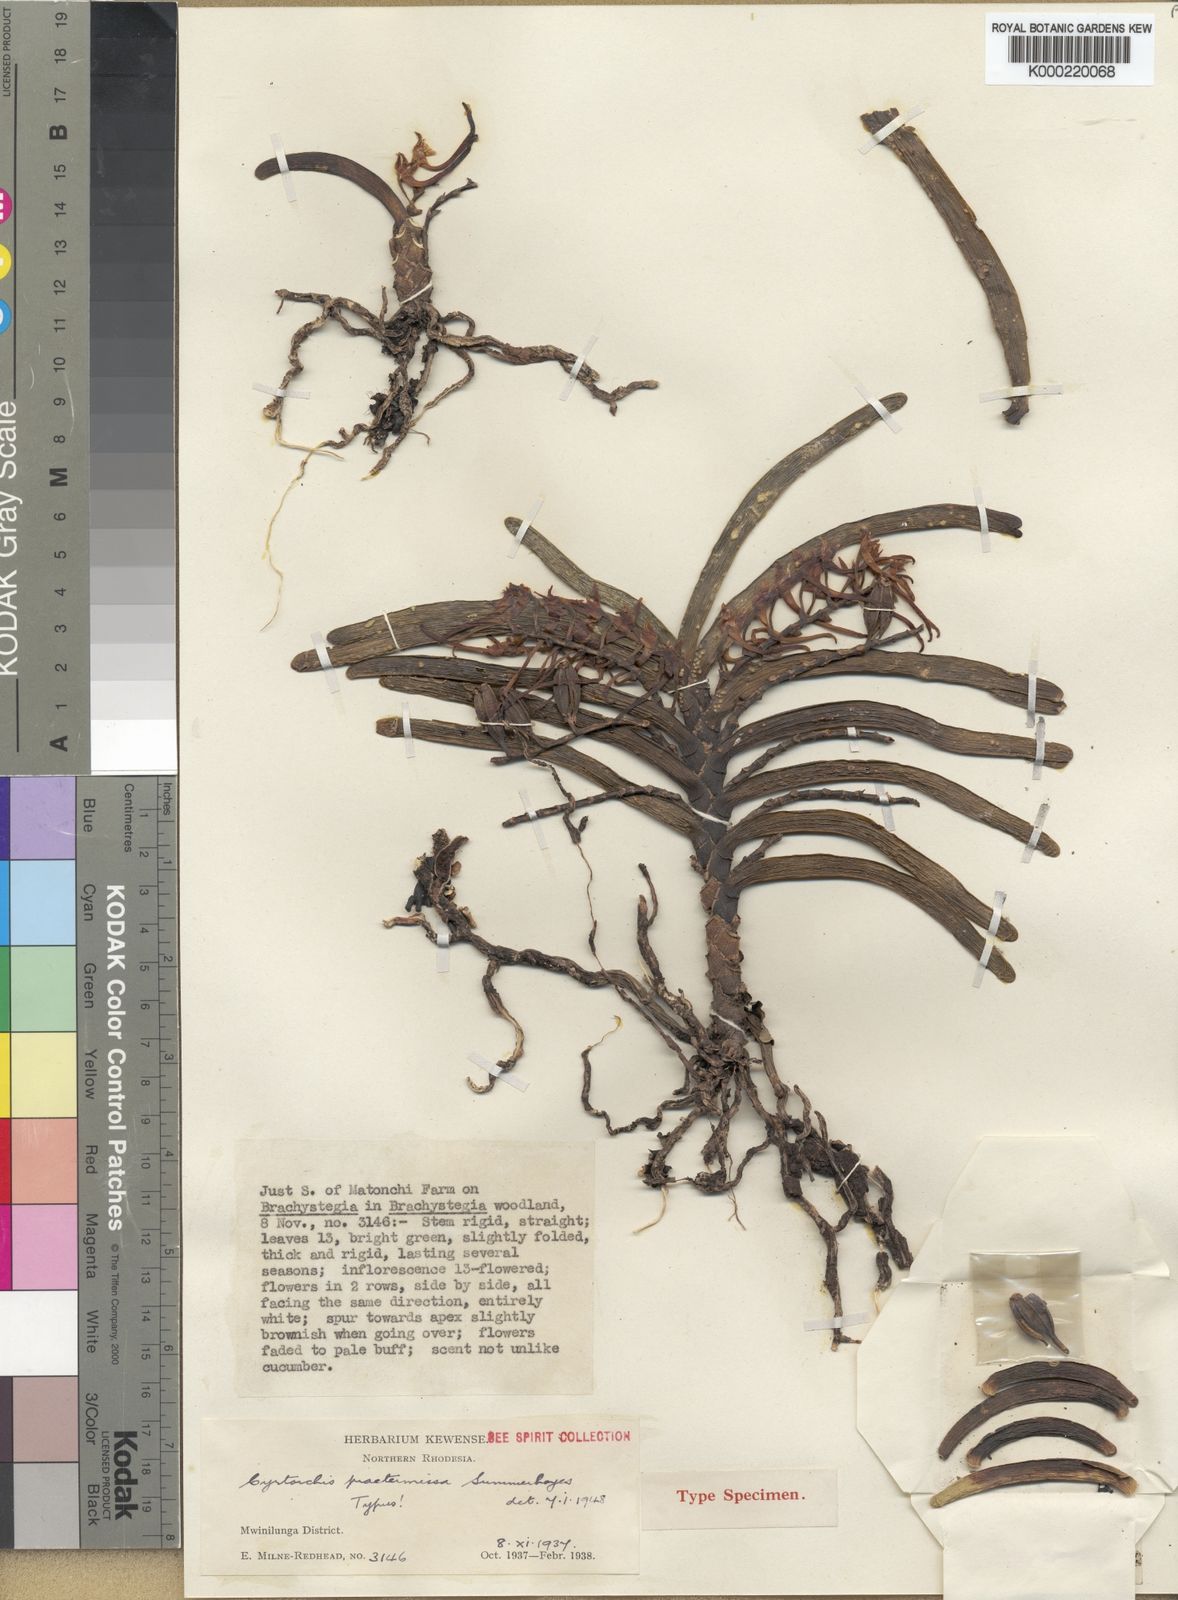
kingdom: Plantae
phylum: Tracheophyta
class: Liliopsida
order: Asparagales
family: Orchidaceae
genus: Cyrtorchis
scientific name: Cyrtorchis praetermissa
